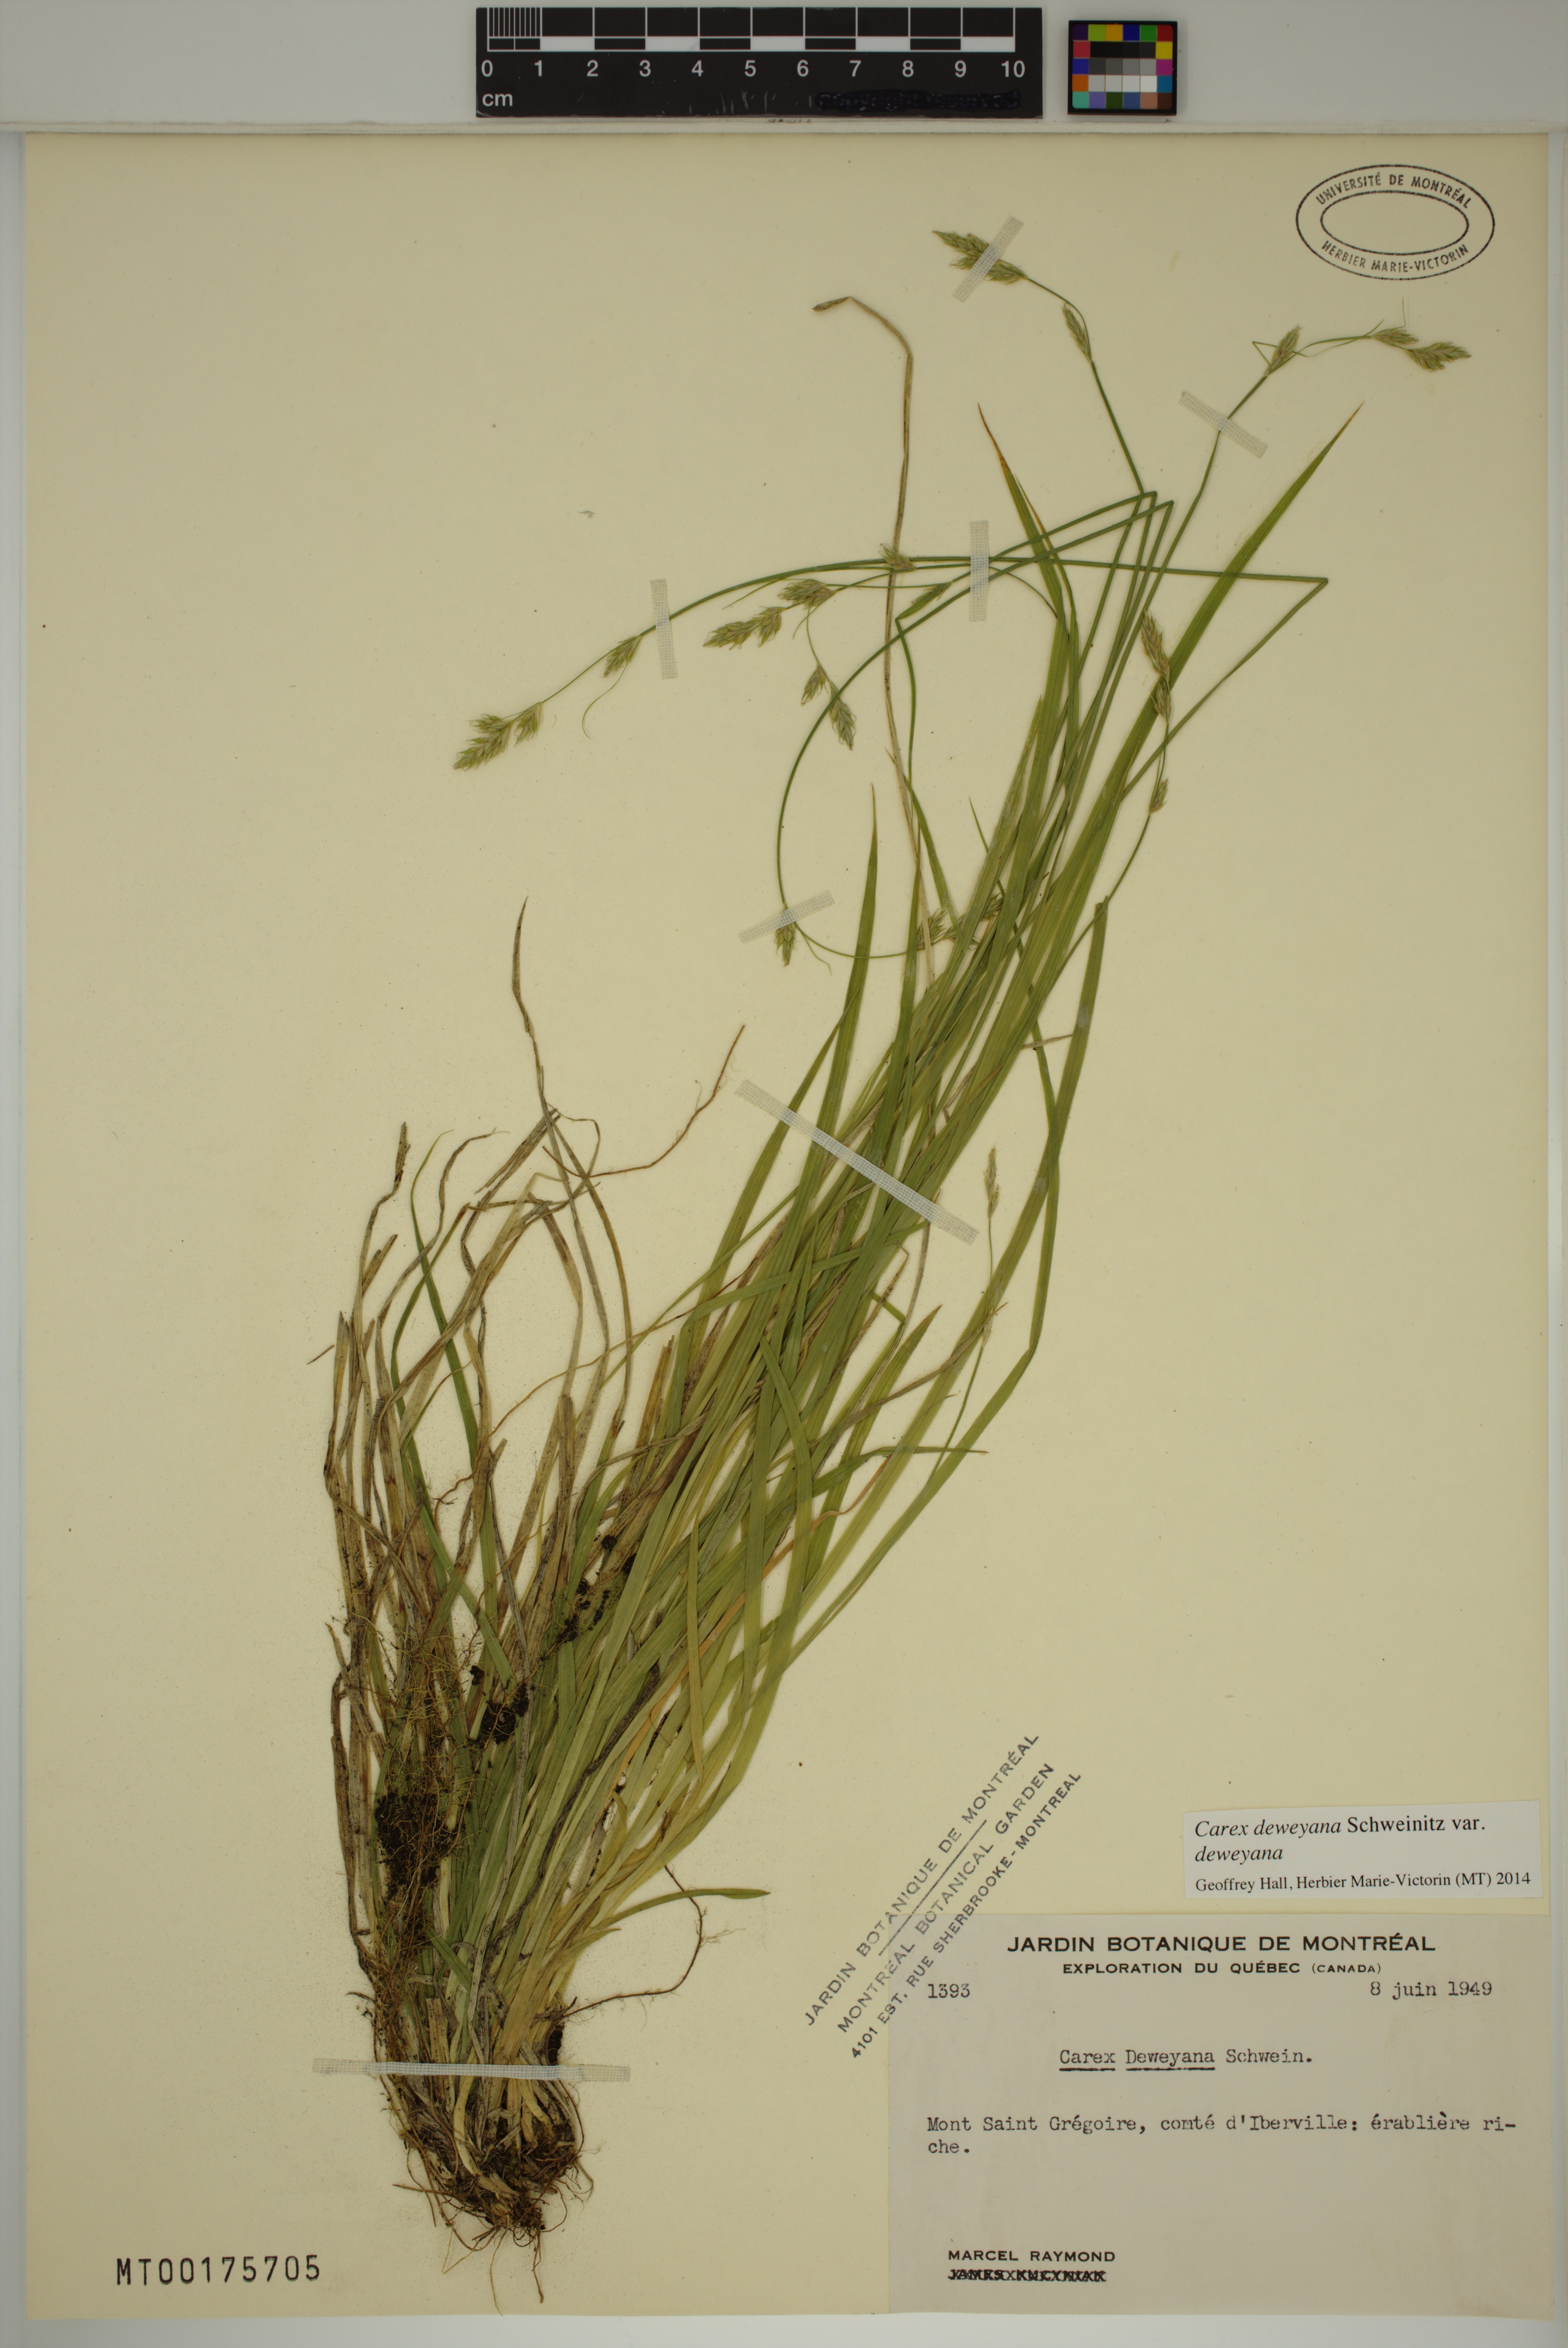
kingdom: Plantae
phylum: Tracheophyta
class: Liliopsida
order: Poales
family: Cyperaceae
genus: Carex
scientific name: Carex deweyana
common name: Dewey's sedge
